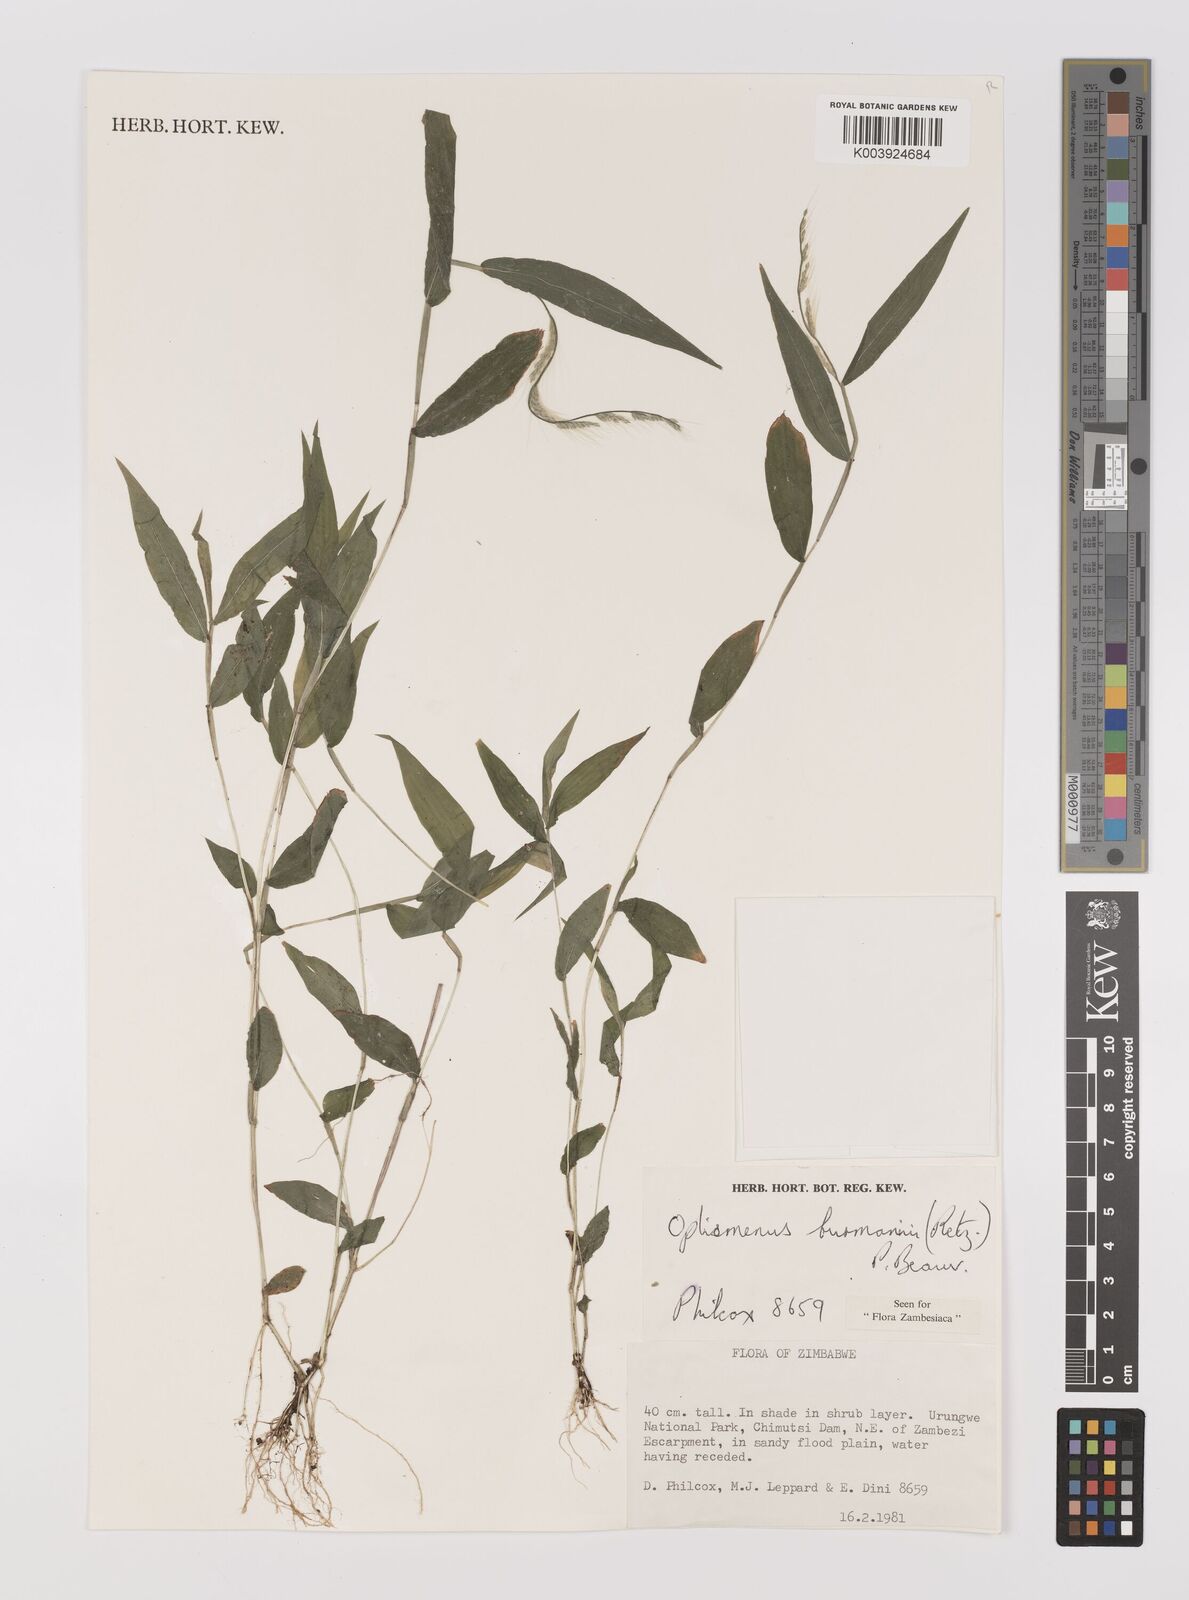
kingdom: Plantae
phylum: Tracheophyta
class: Liliopsida
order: Poales
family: Poaceae
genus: Oplismenus
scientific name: Oplismenus burmanni
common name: Burmann's basketgrass
